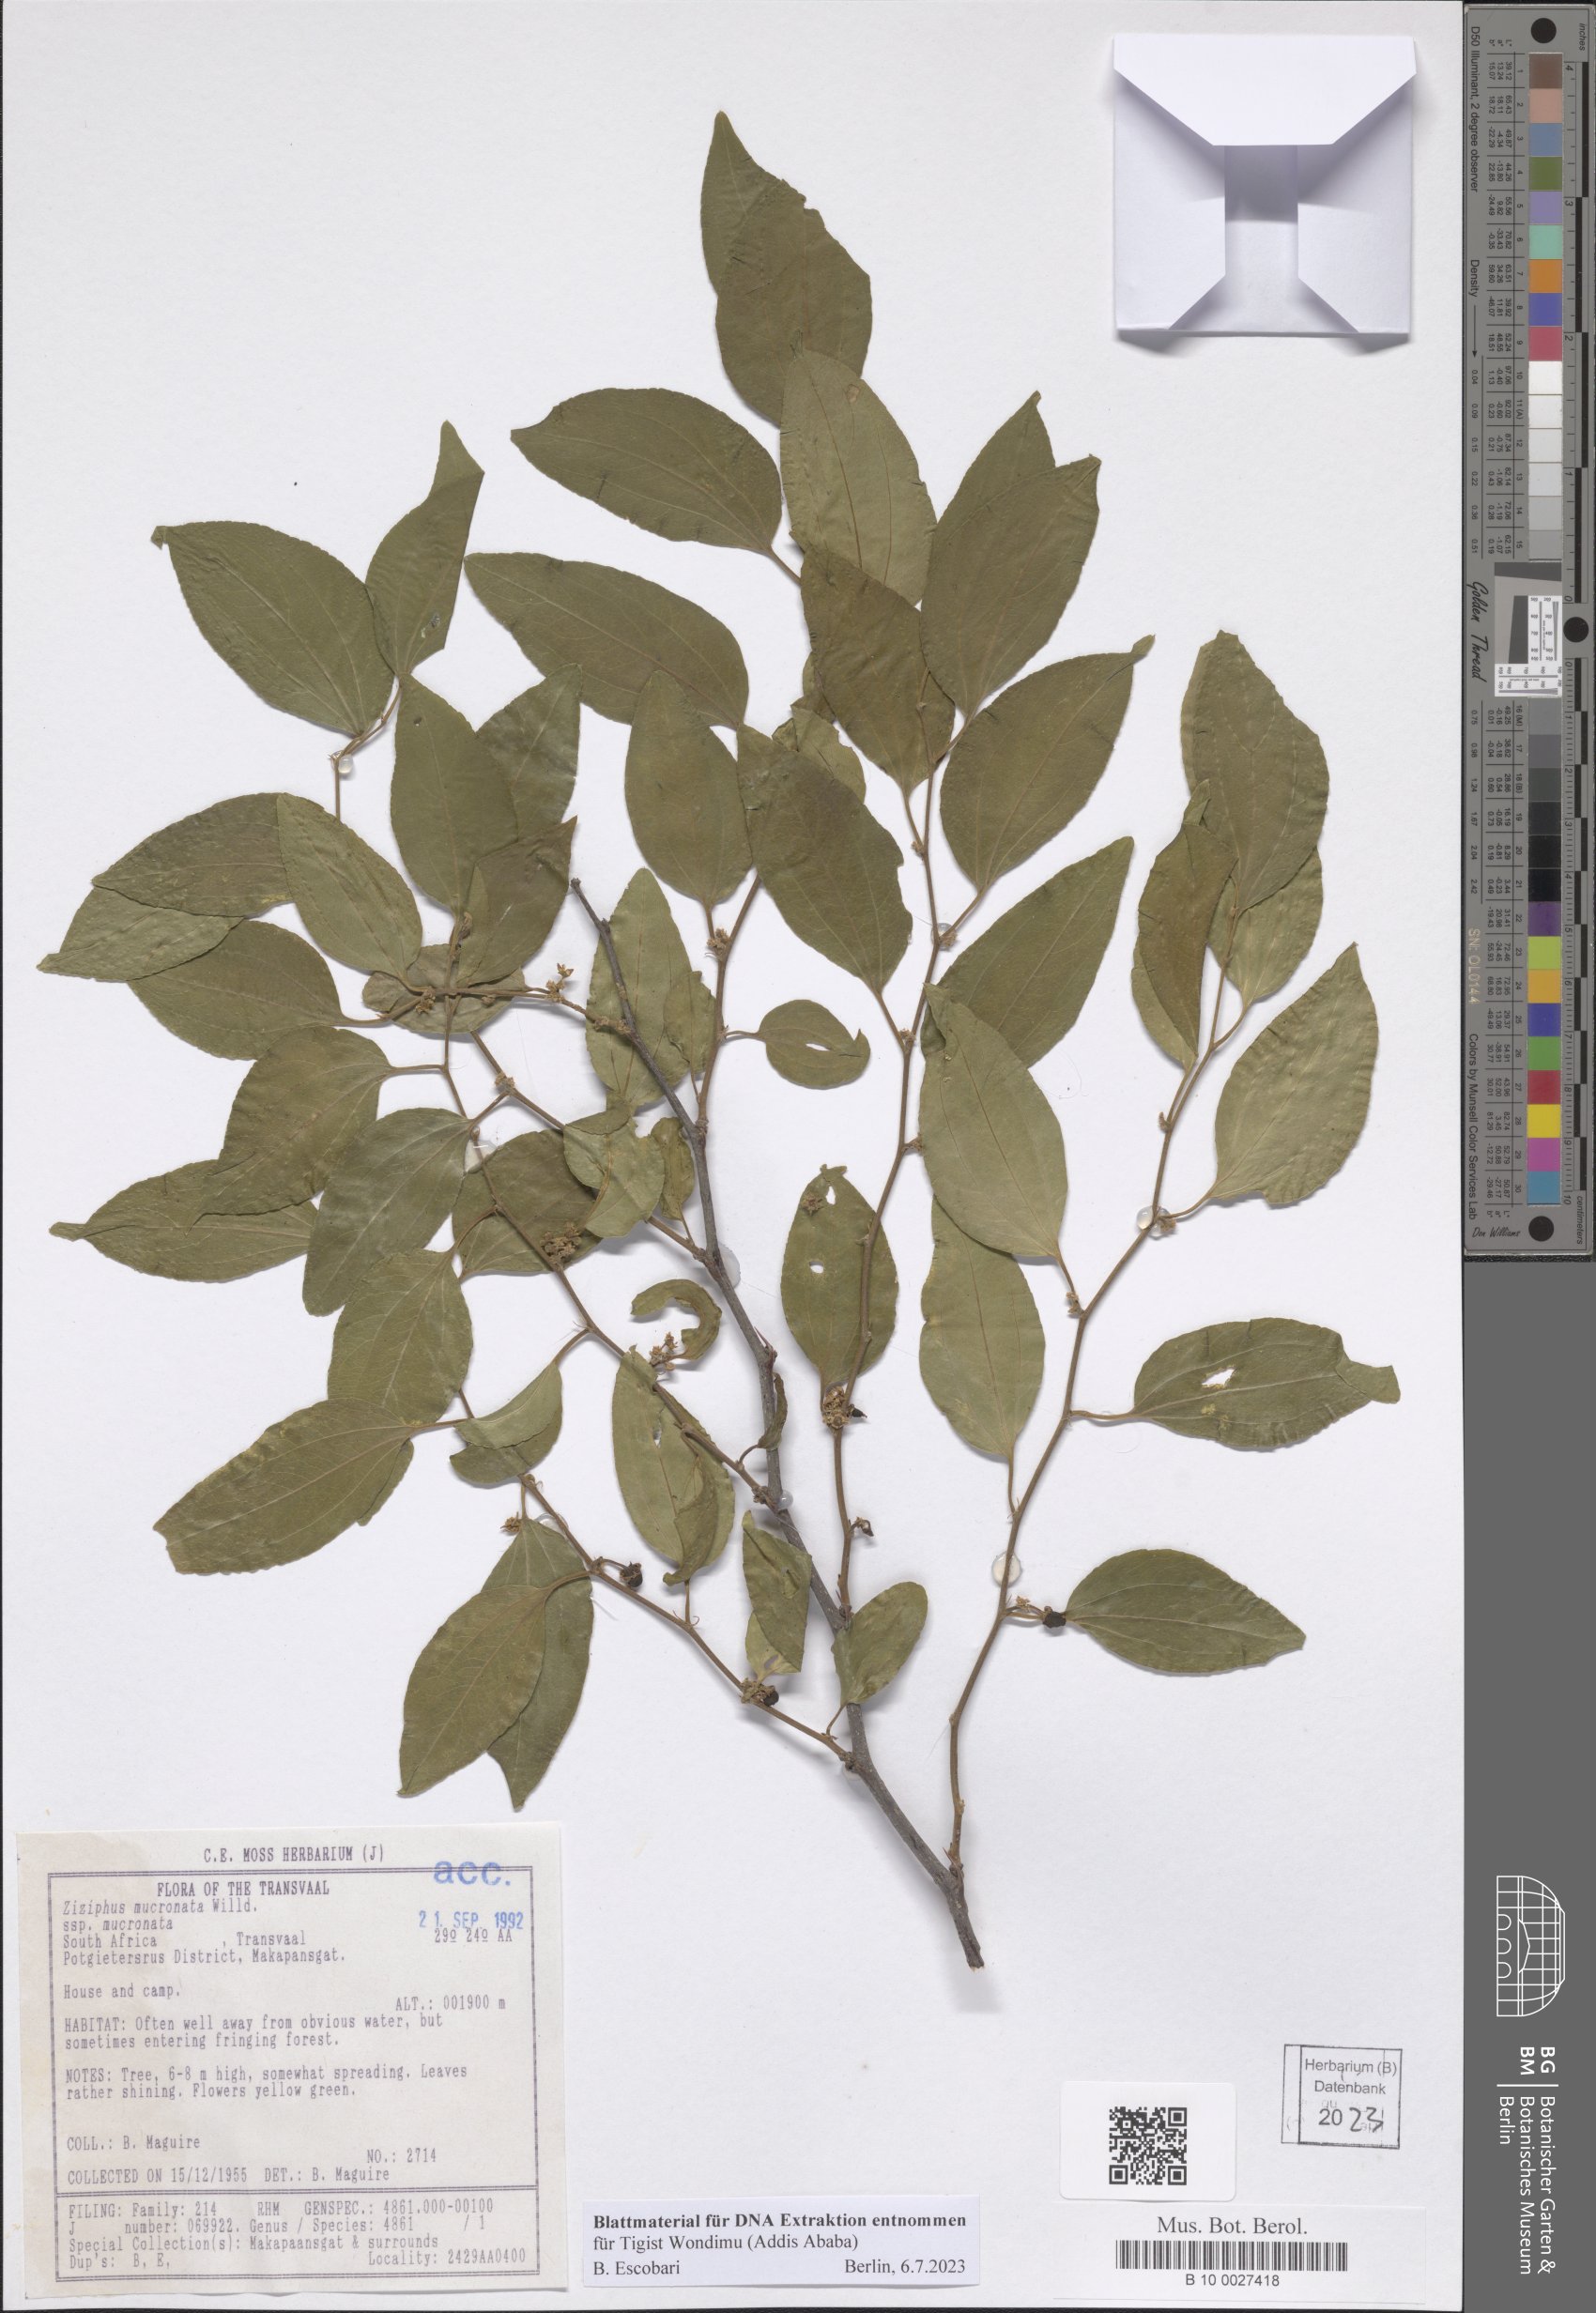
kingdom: Plantae
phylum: Tracheophyta
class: Magnoliopsida
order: Rosales
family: Rhamnaceae
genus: Ziziphus
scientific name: Ziziphus mucronata
